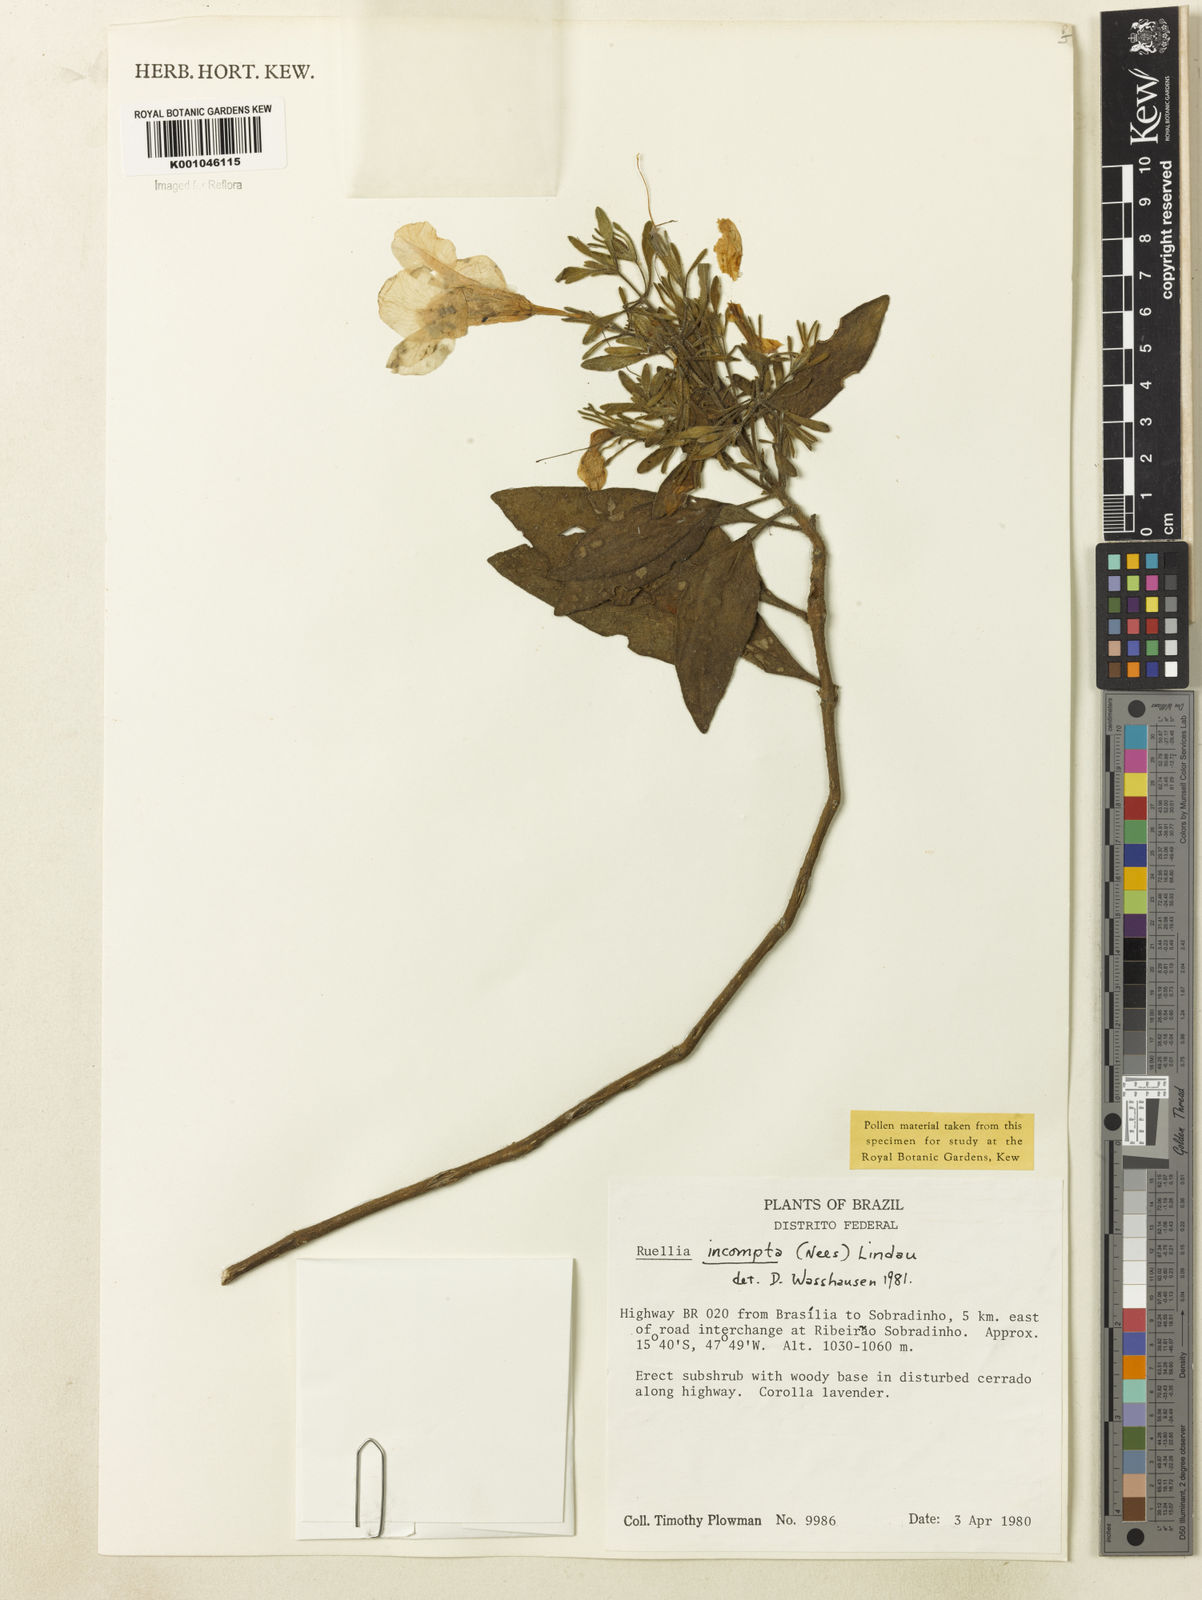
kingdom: Plantae
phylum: Tracheophyta
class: Magnoliopsida
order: Lamiales
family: Acanthaceae
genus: Ruellia
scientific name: Ruellia
